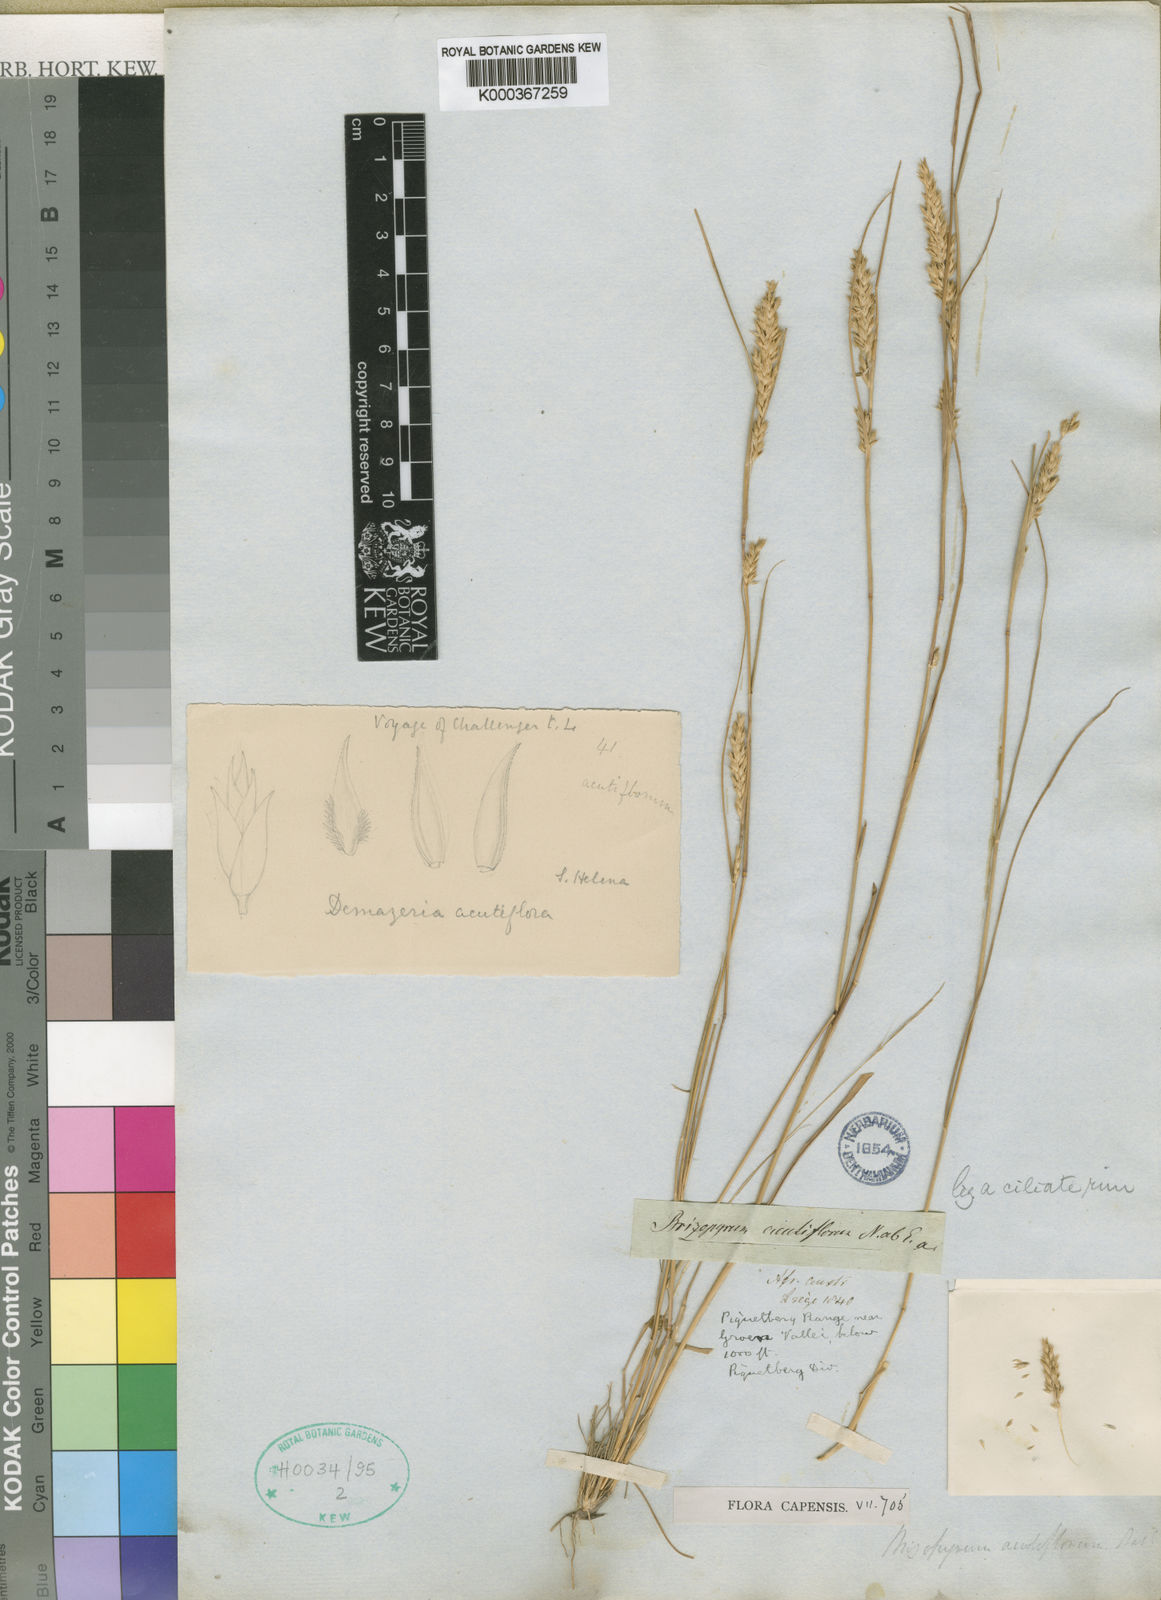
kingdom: Plantae
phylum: Tracheophyta
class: Liliopsida
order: Poales
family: Poaceae
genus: Tribolium
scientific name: Tribolium acutiflorum
